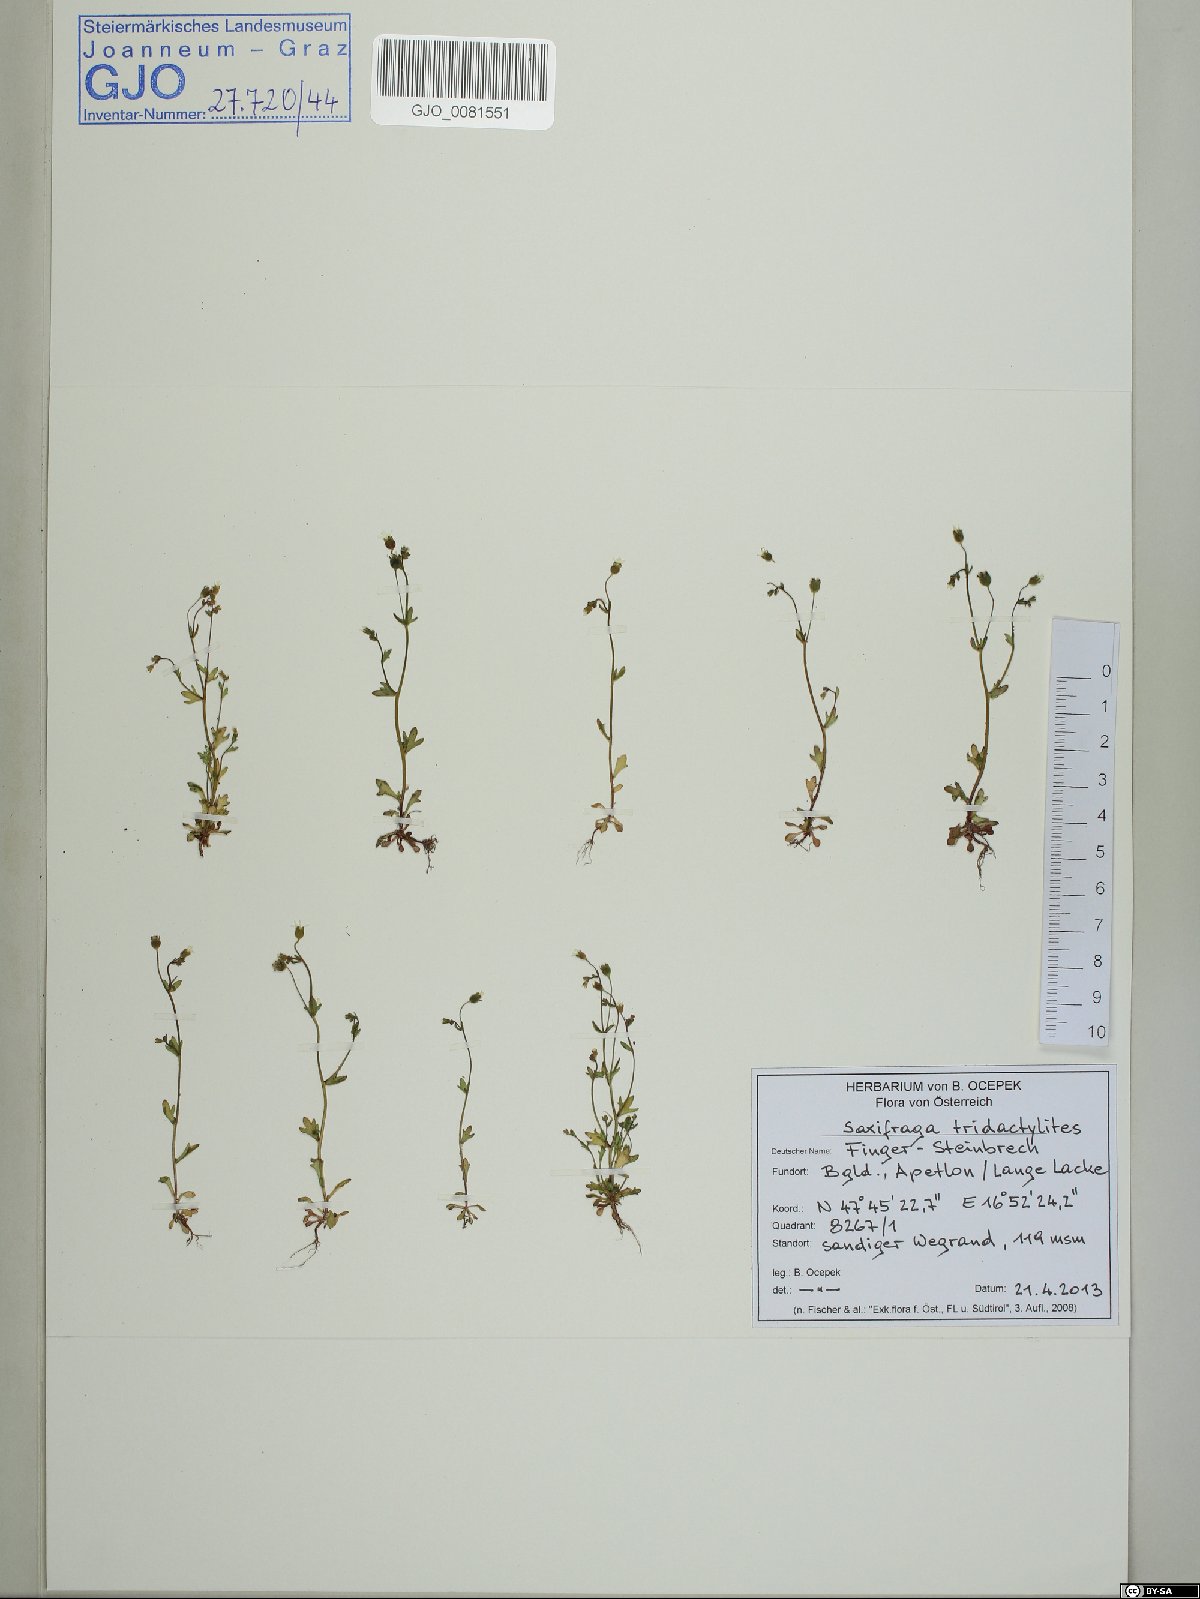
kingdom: Plantae
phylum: Tracheophyta
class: Magnoliopsida
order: Saxifragales
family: Saxifragaceae
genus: Saxifraga
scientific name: Saxifraga tridactylites
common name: Rue-leaved saxifrage
